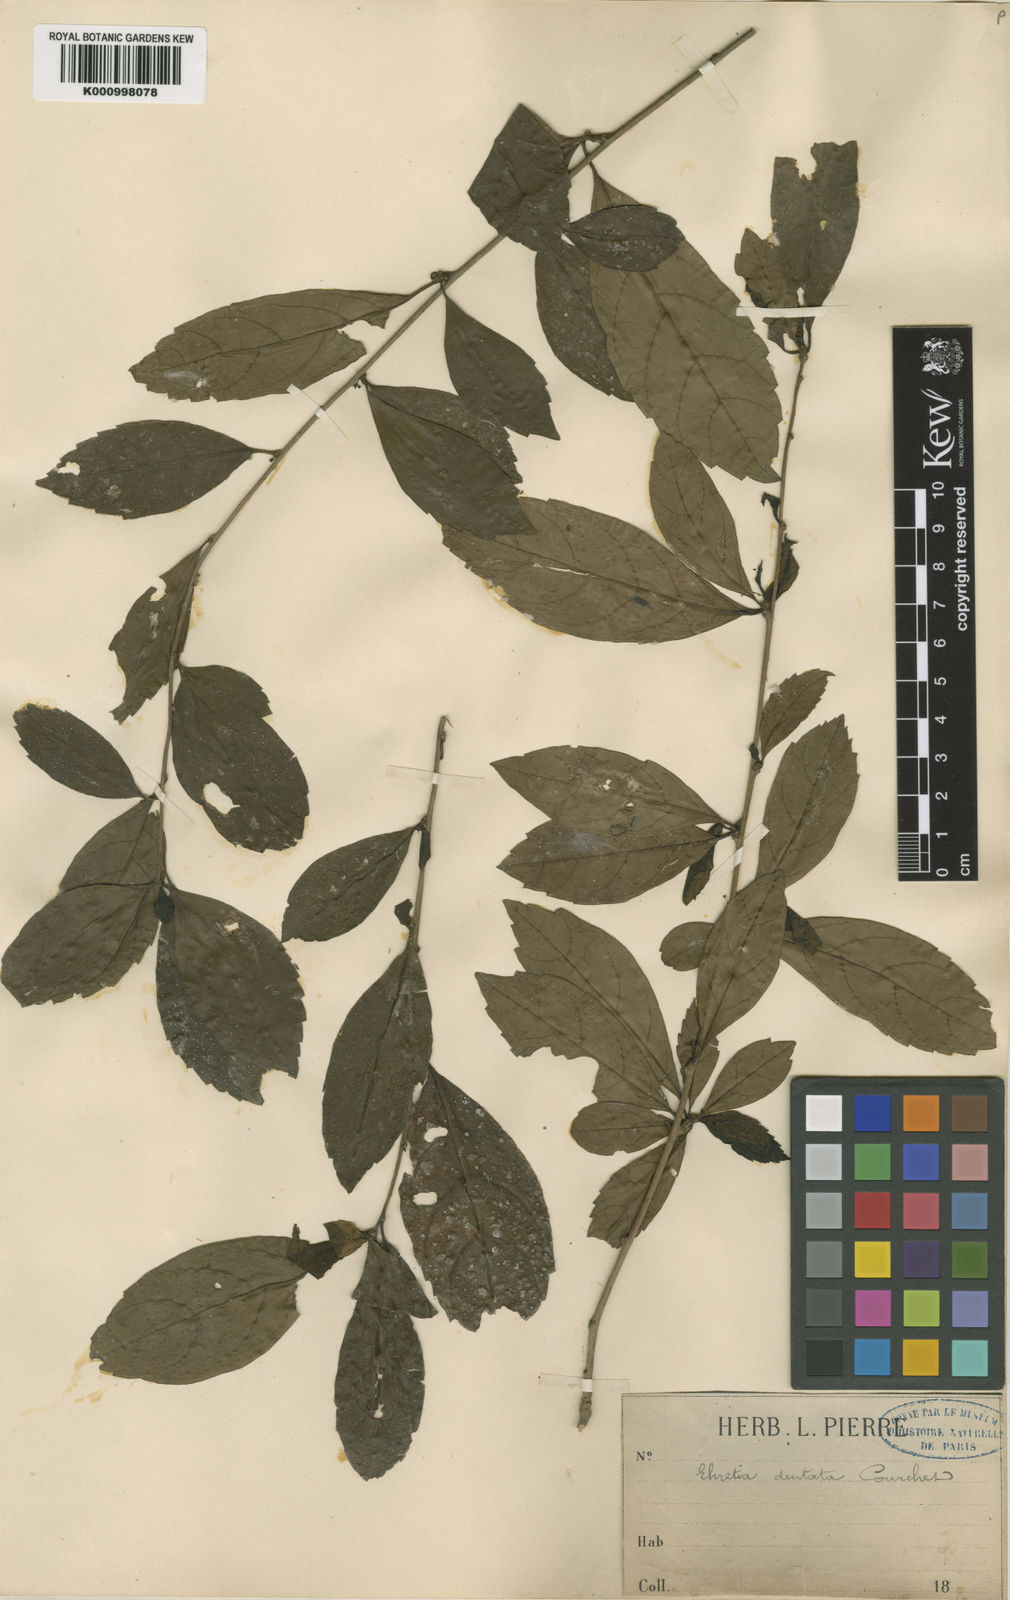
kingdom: Plantae
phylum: Tracheophyta
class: Magnoliopsida
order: Boraginales
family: Ehretiaceae
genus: Ehretia
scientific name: Ehretia
